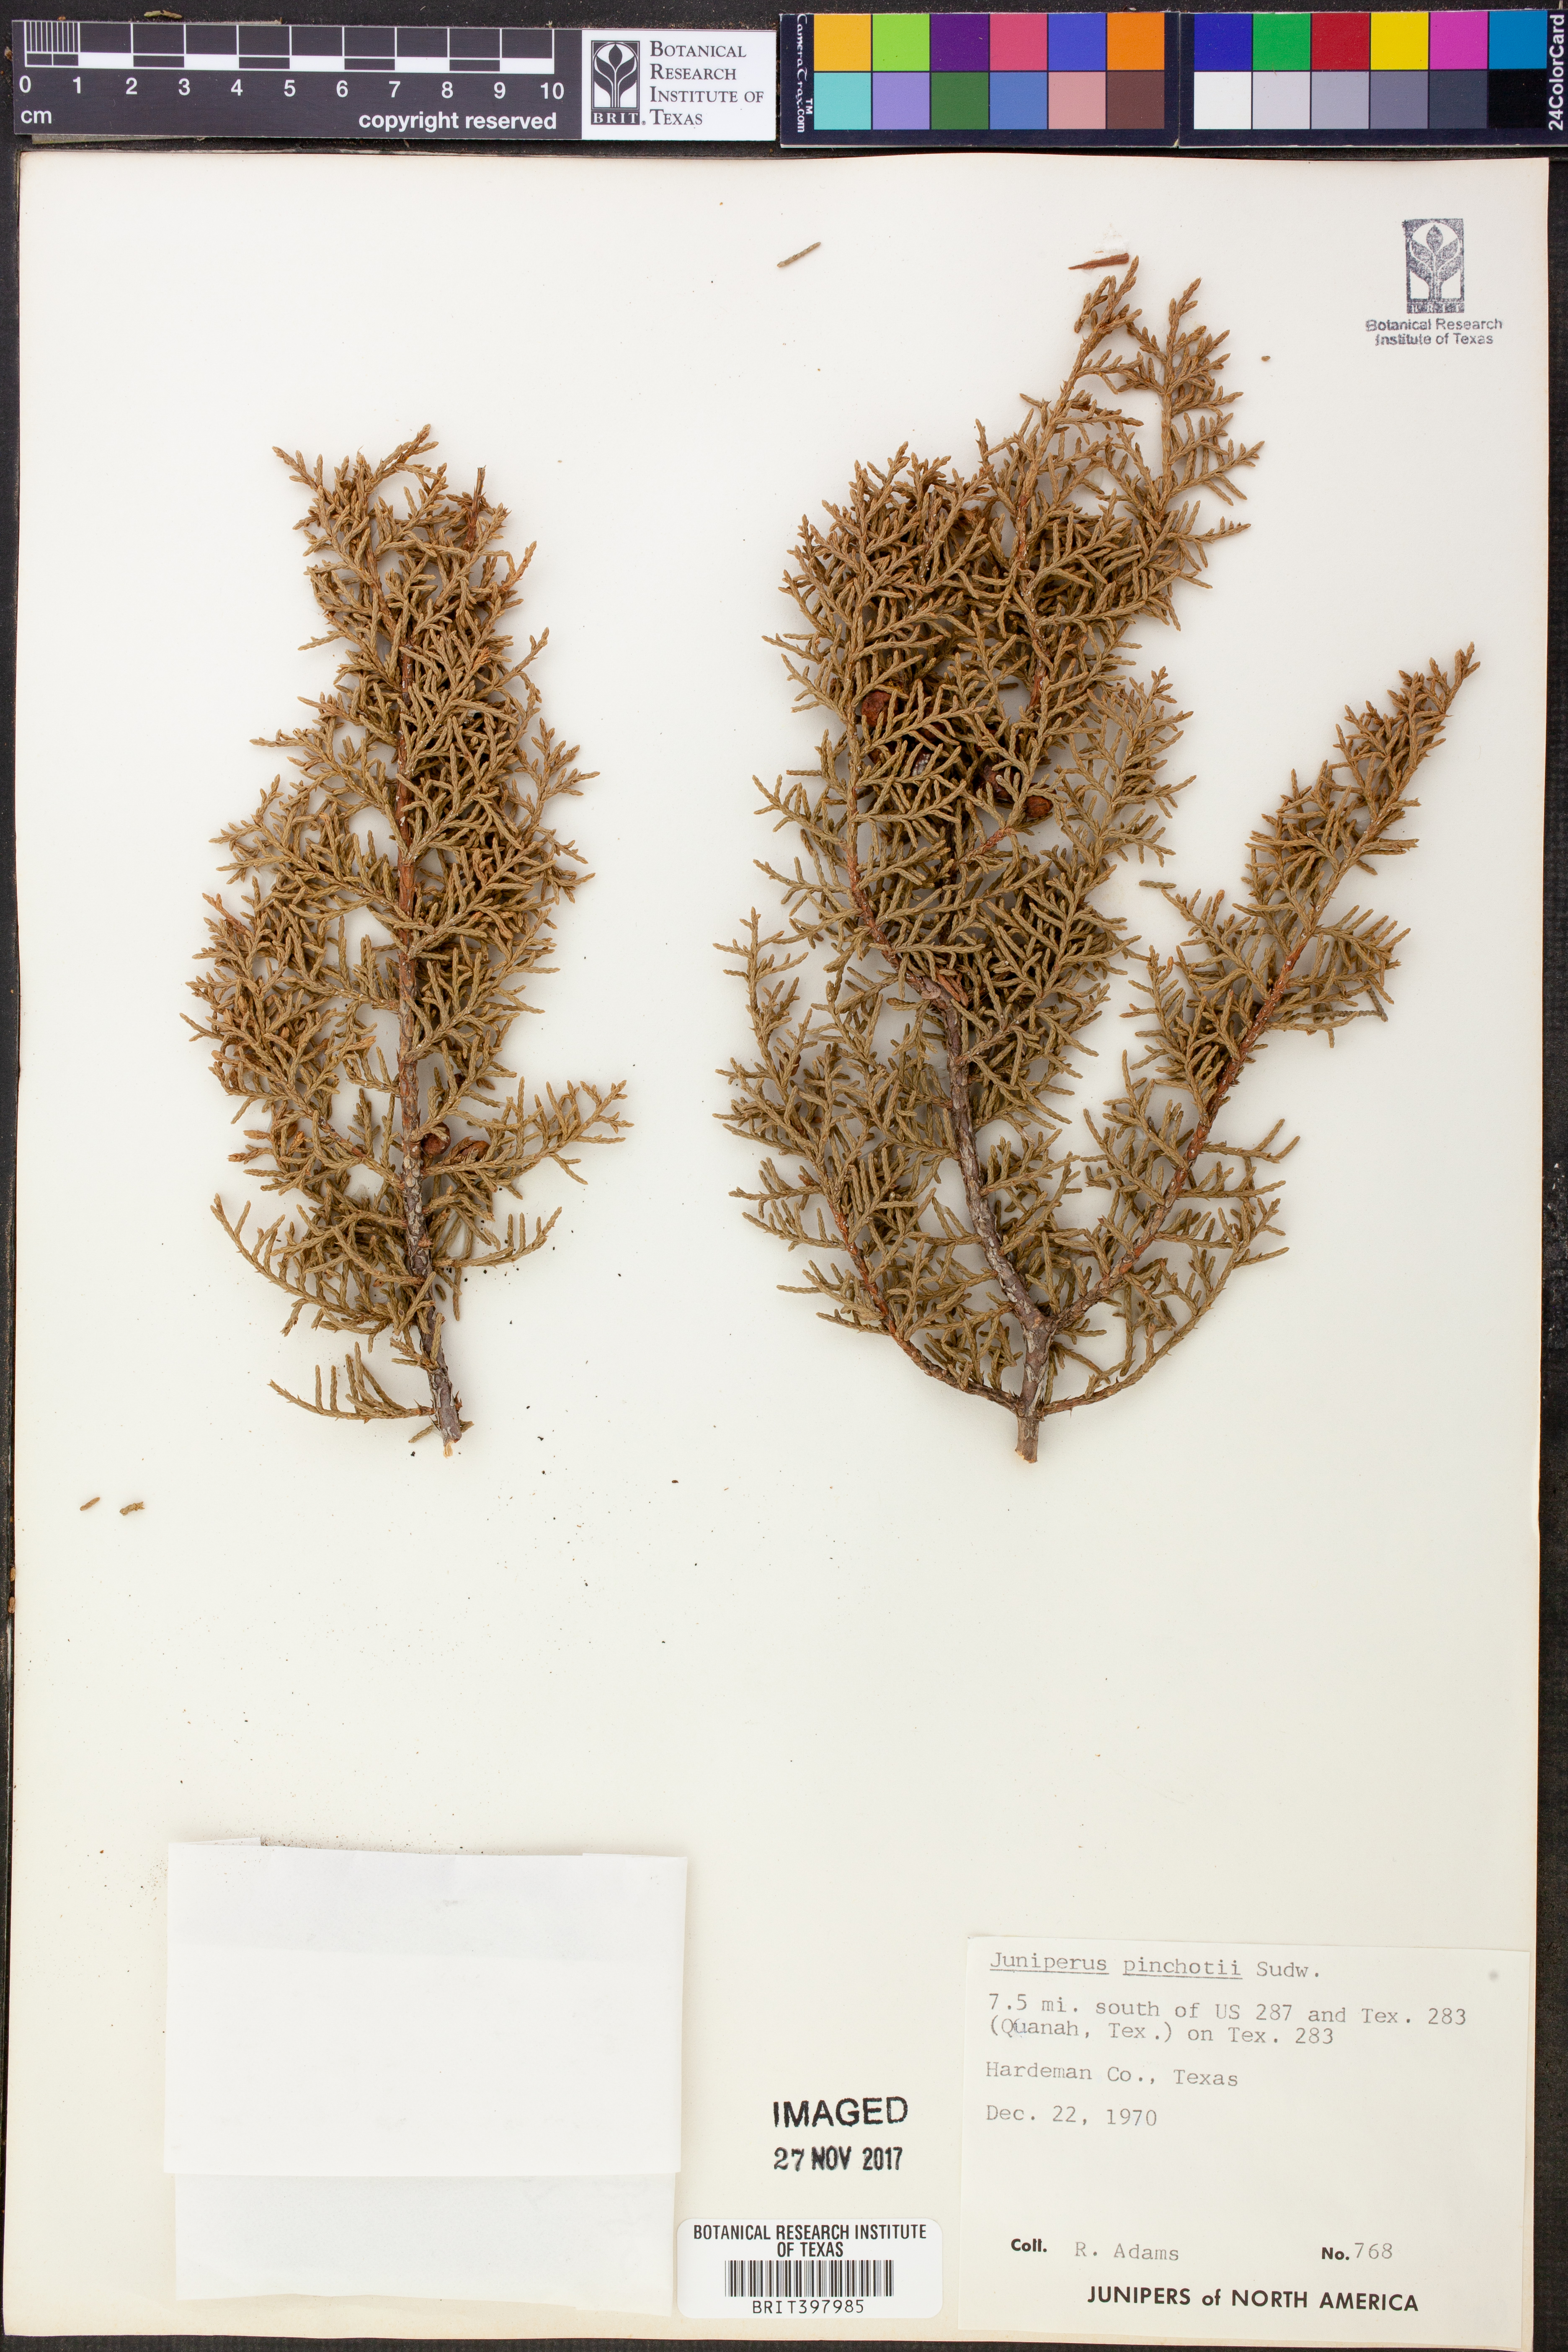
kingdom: Plantae
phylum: Tracheophyta
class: Pinopsida
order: Pinales
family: Cupressaceae
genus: Juniperus
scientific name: Juniperus pinchotii
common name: Pinchot juniper
